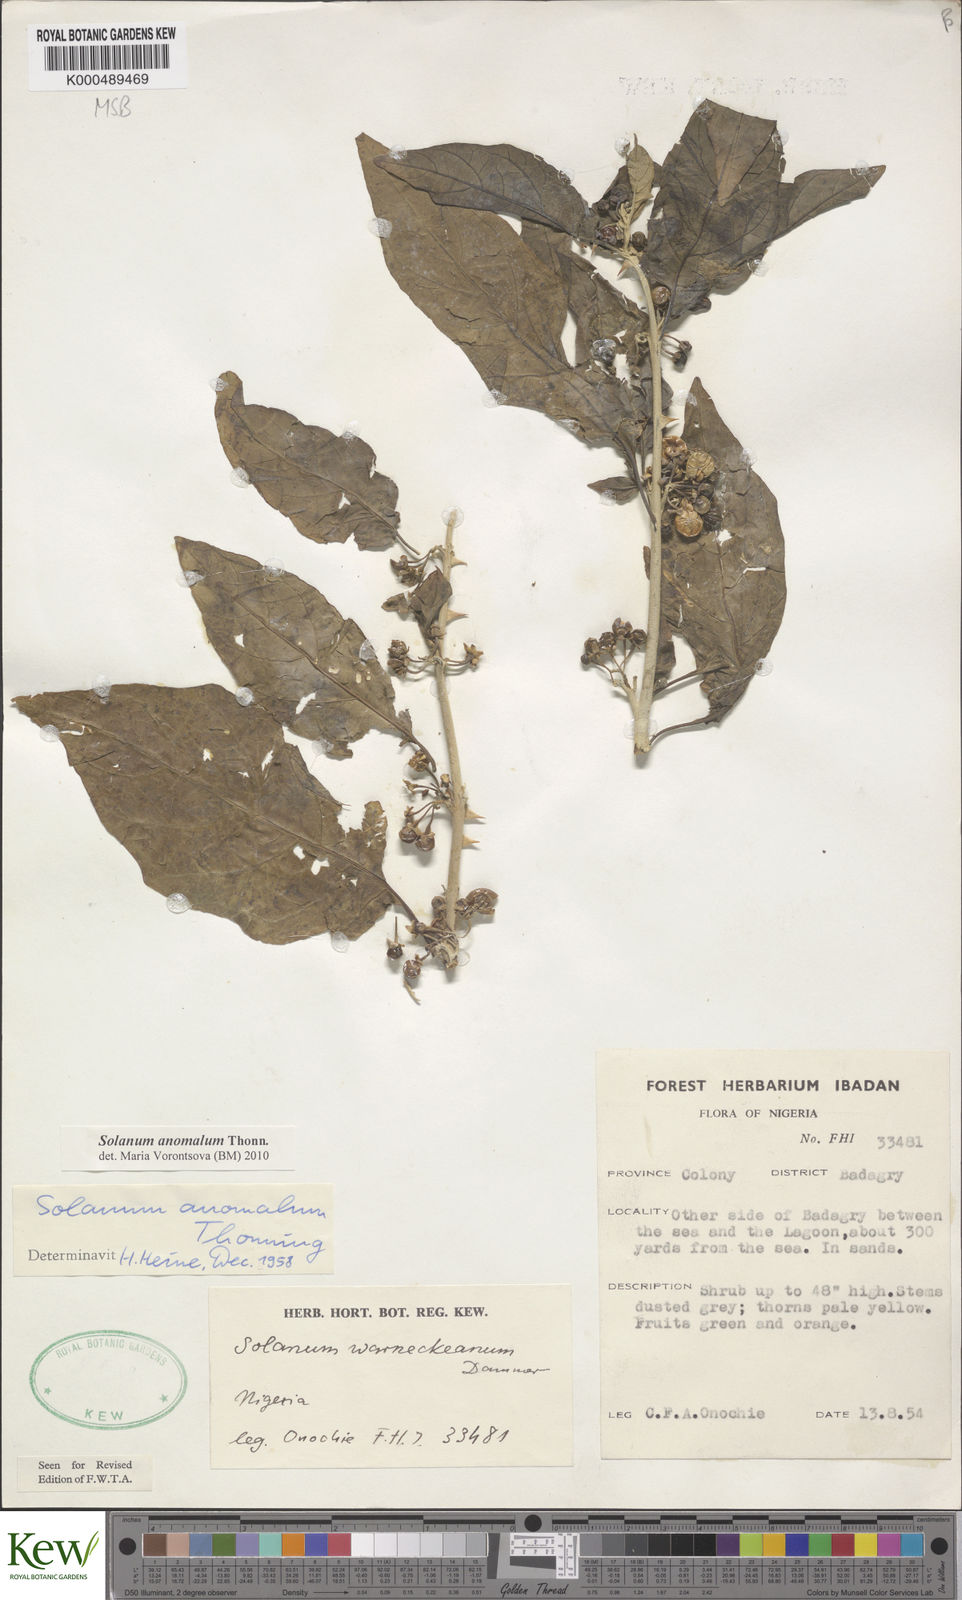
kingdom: Plantae
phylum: Tracheophyta
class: Magnoliopsida
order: Solanales
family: Solanaceae
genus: Solanum
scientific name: Solanum anomalum
